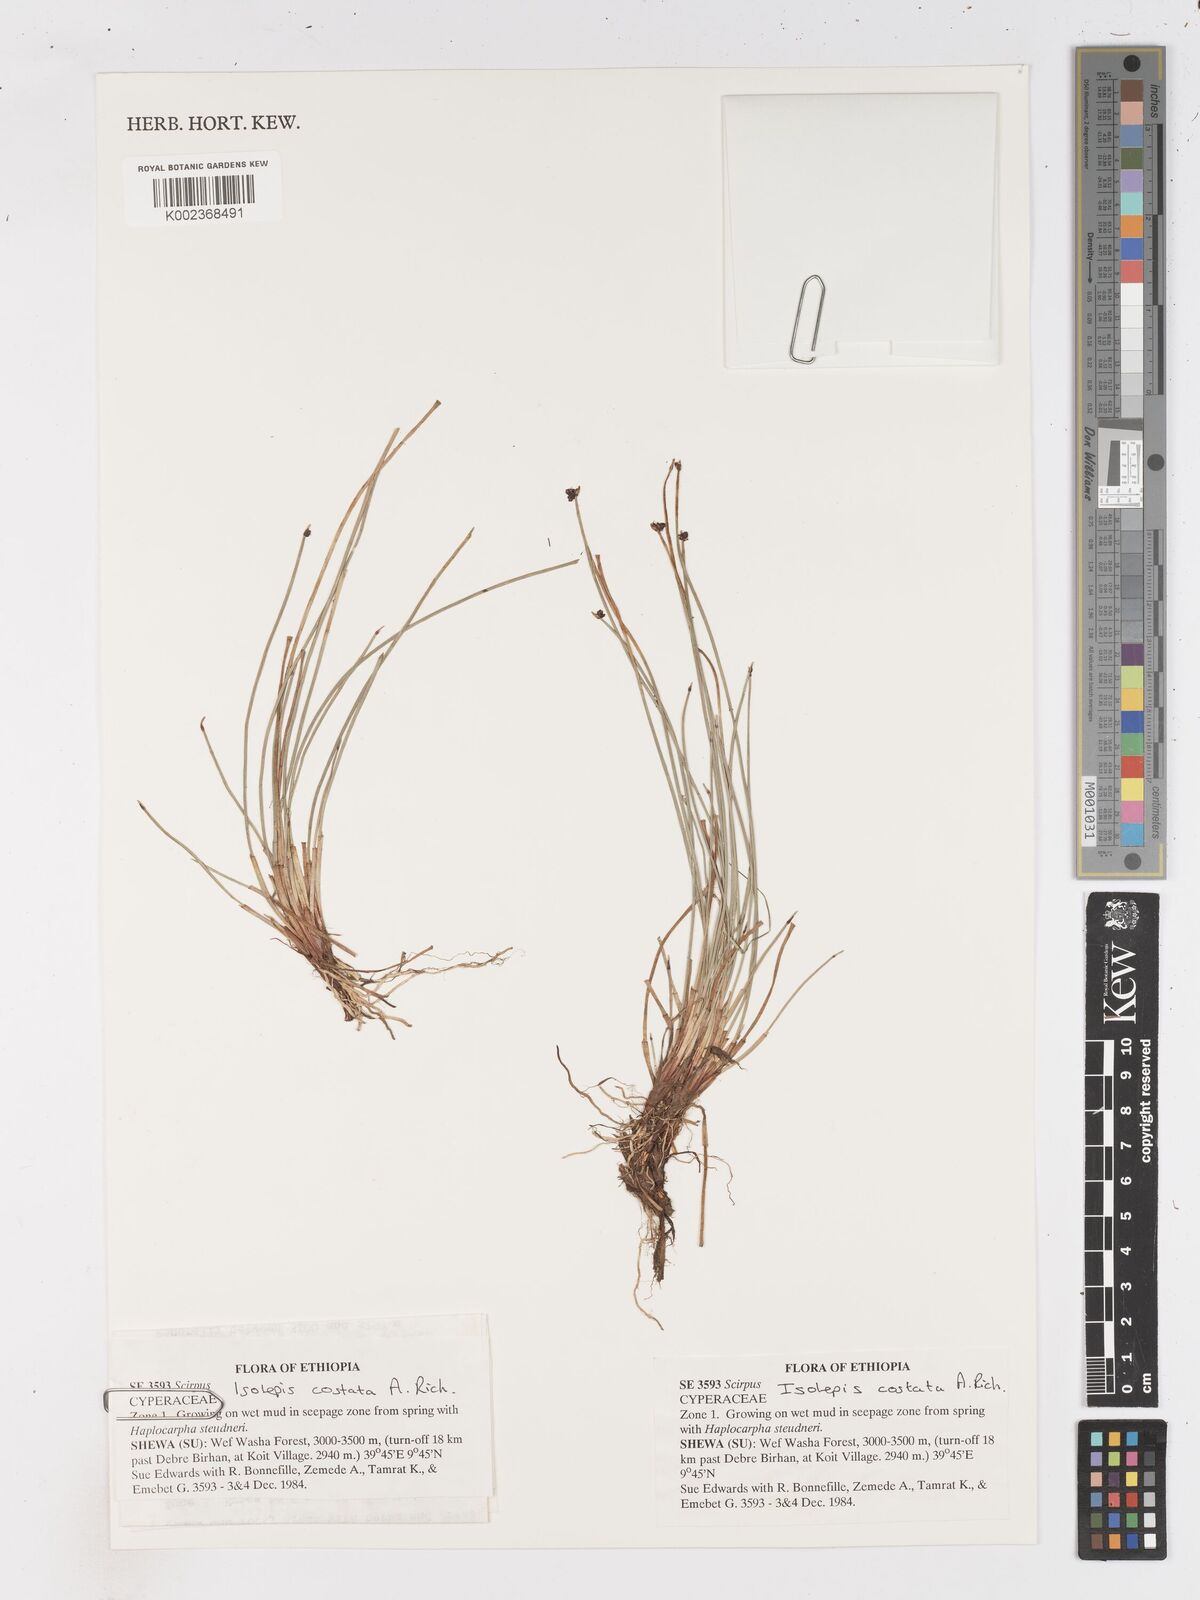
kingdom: Plantae
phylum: Tracheophyta
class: Liliopsida
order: Poales
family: Cyperaceae
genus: Isolepis
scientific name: Isolepis costata
